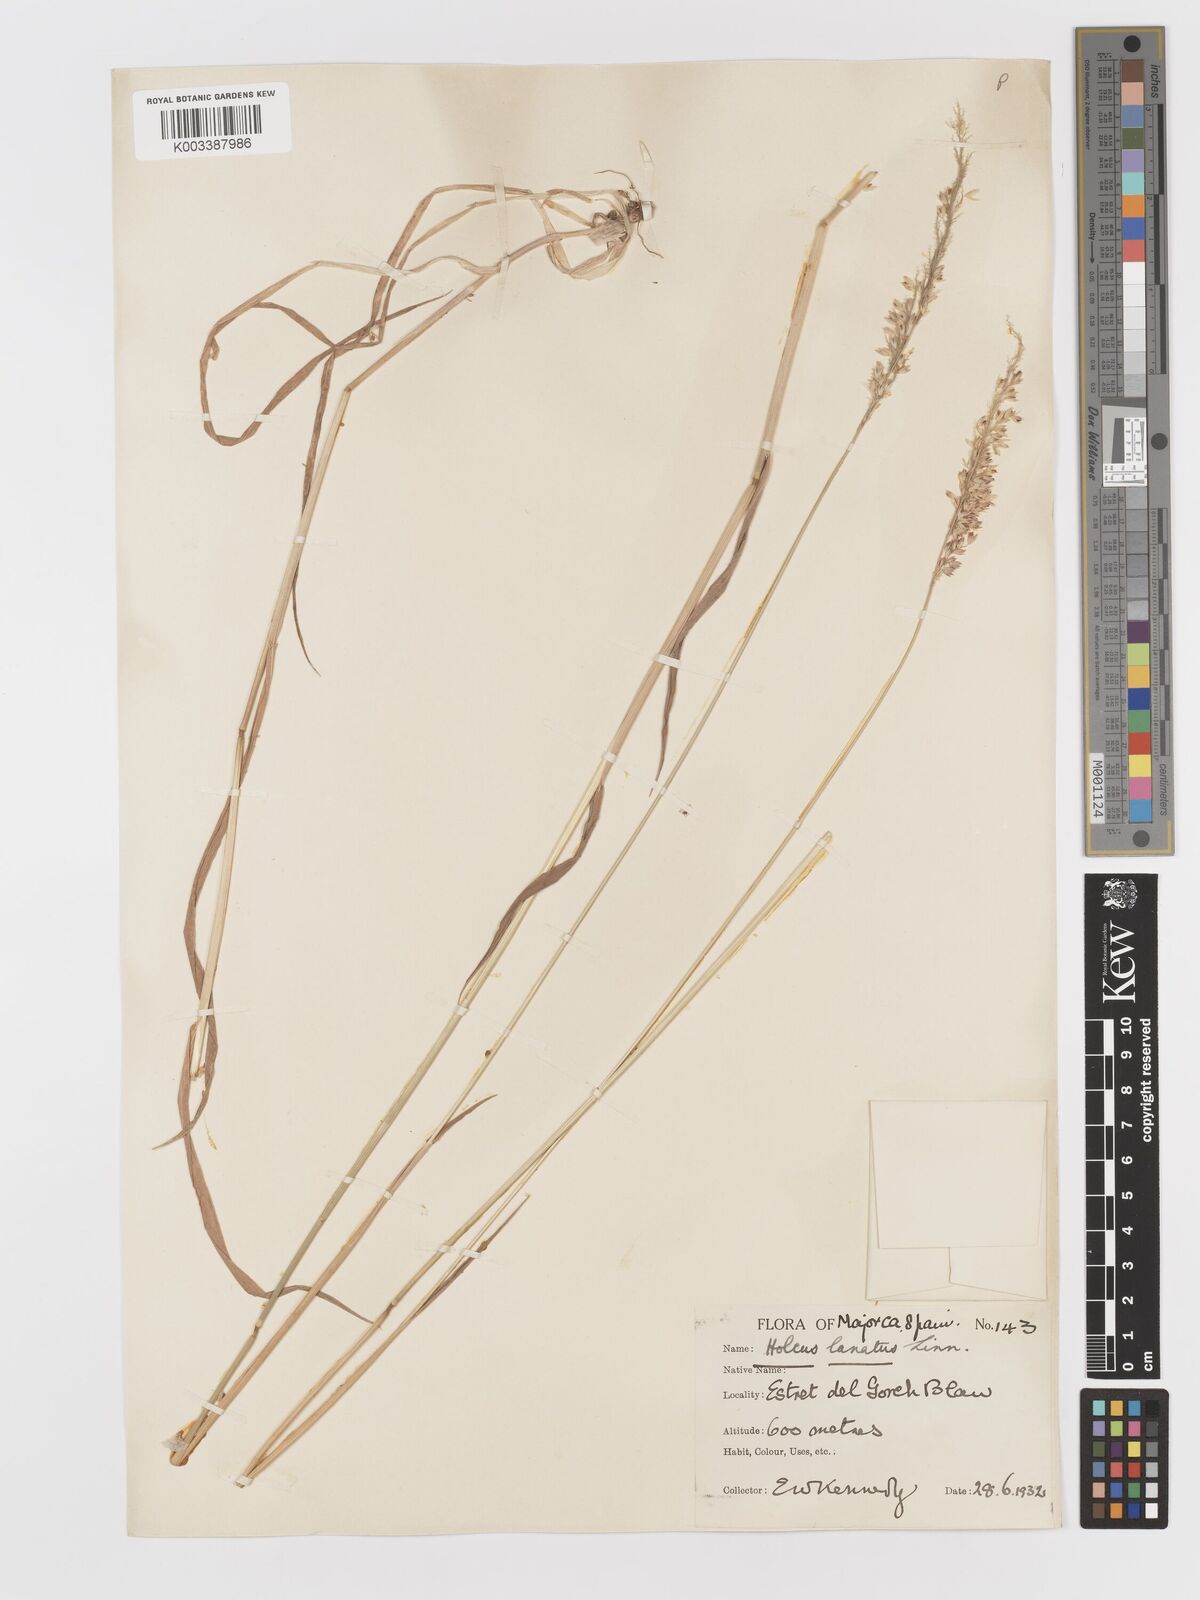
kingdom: Plantae
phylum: Tracheophyta
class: Liliopsida
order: Poales
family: Poaceae
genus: Holcus
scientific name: Holcus lanatus
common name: Yorkshire-fog
